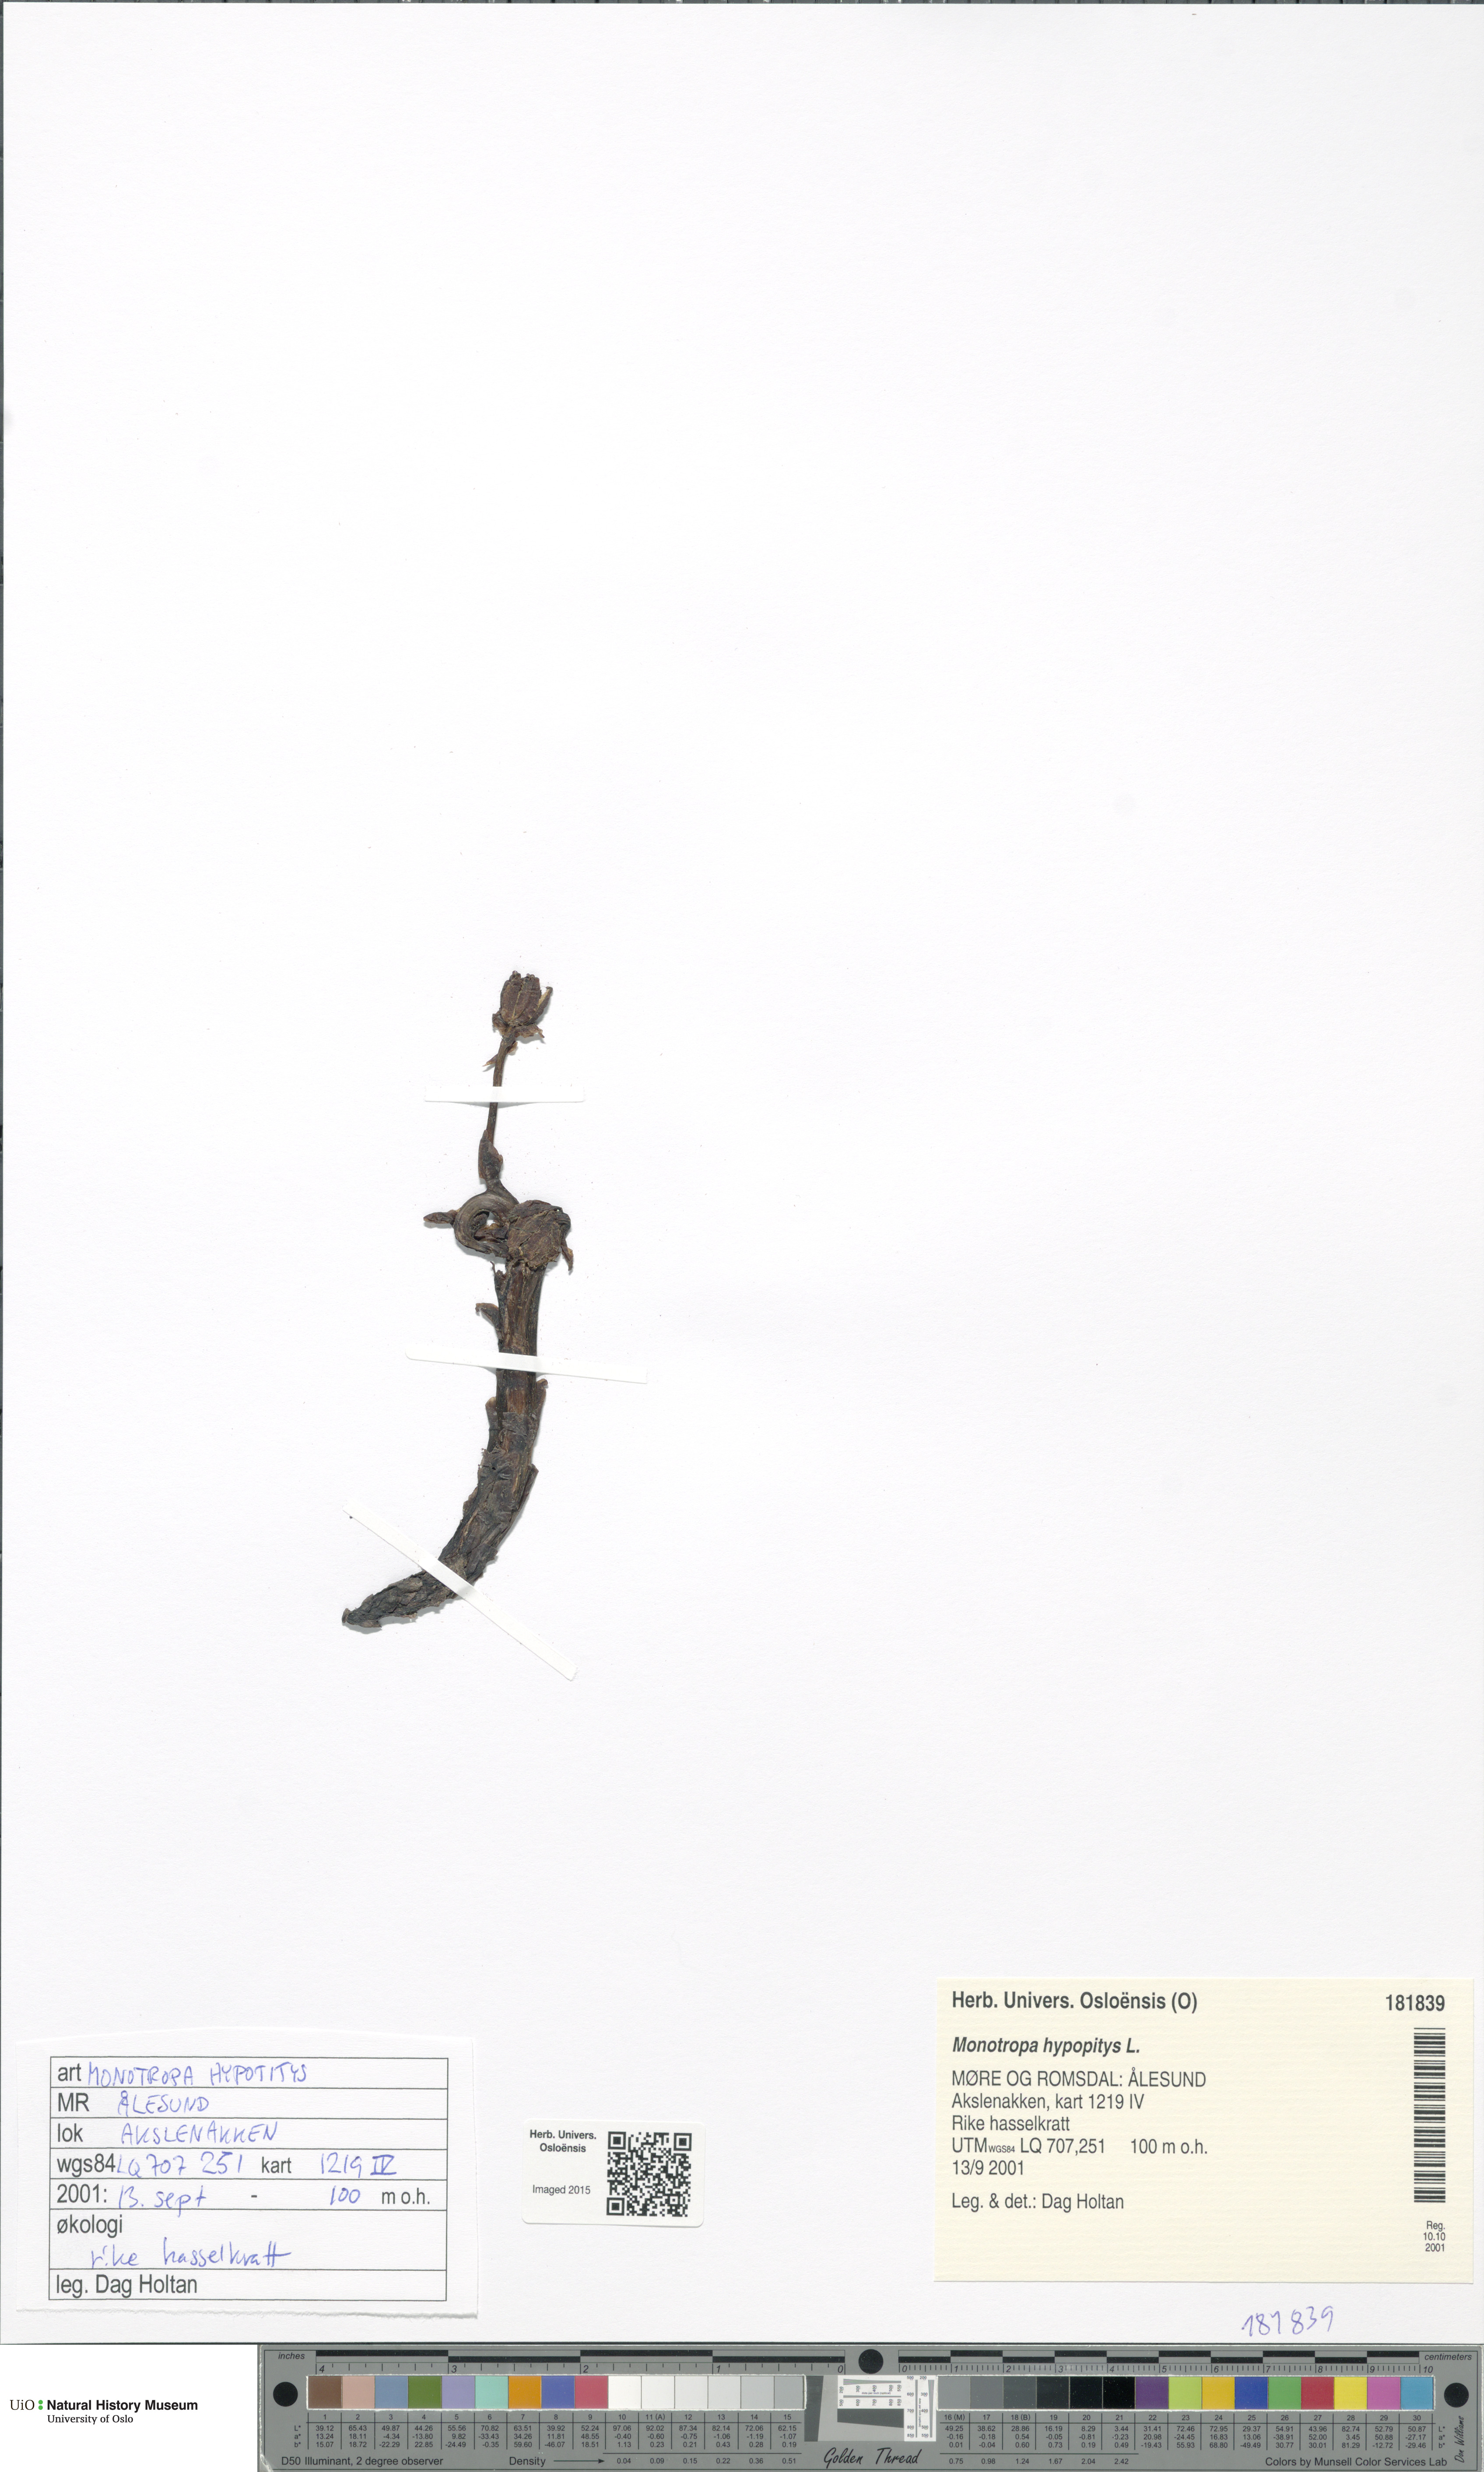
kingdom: Plantae
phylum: Tracheophyta
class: Magnoliopsida
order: Ericales
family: Ericaceae
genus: Hypopitys
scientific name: Hypopitys monotropa
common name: Yellow bird's-nest
